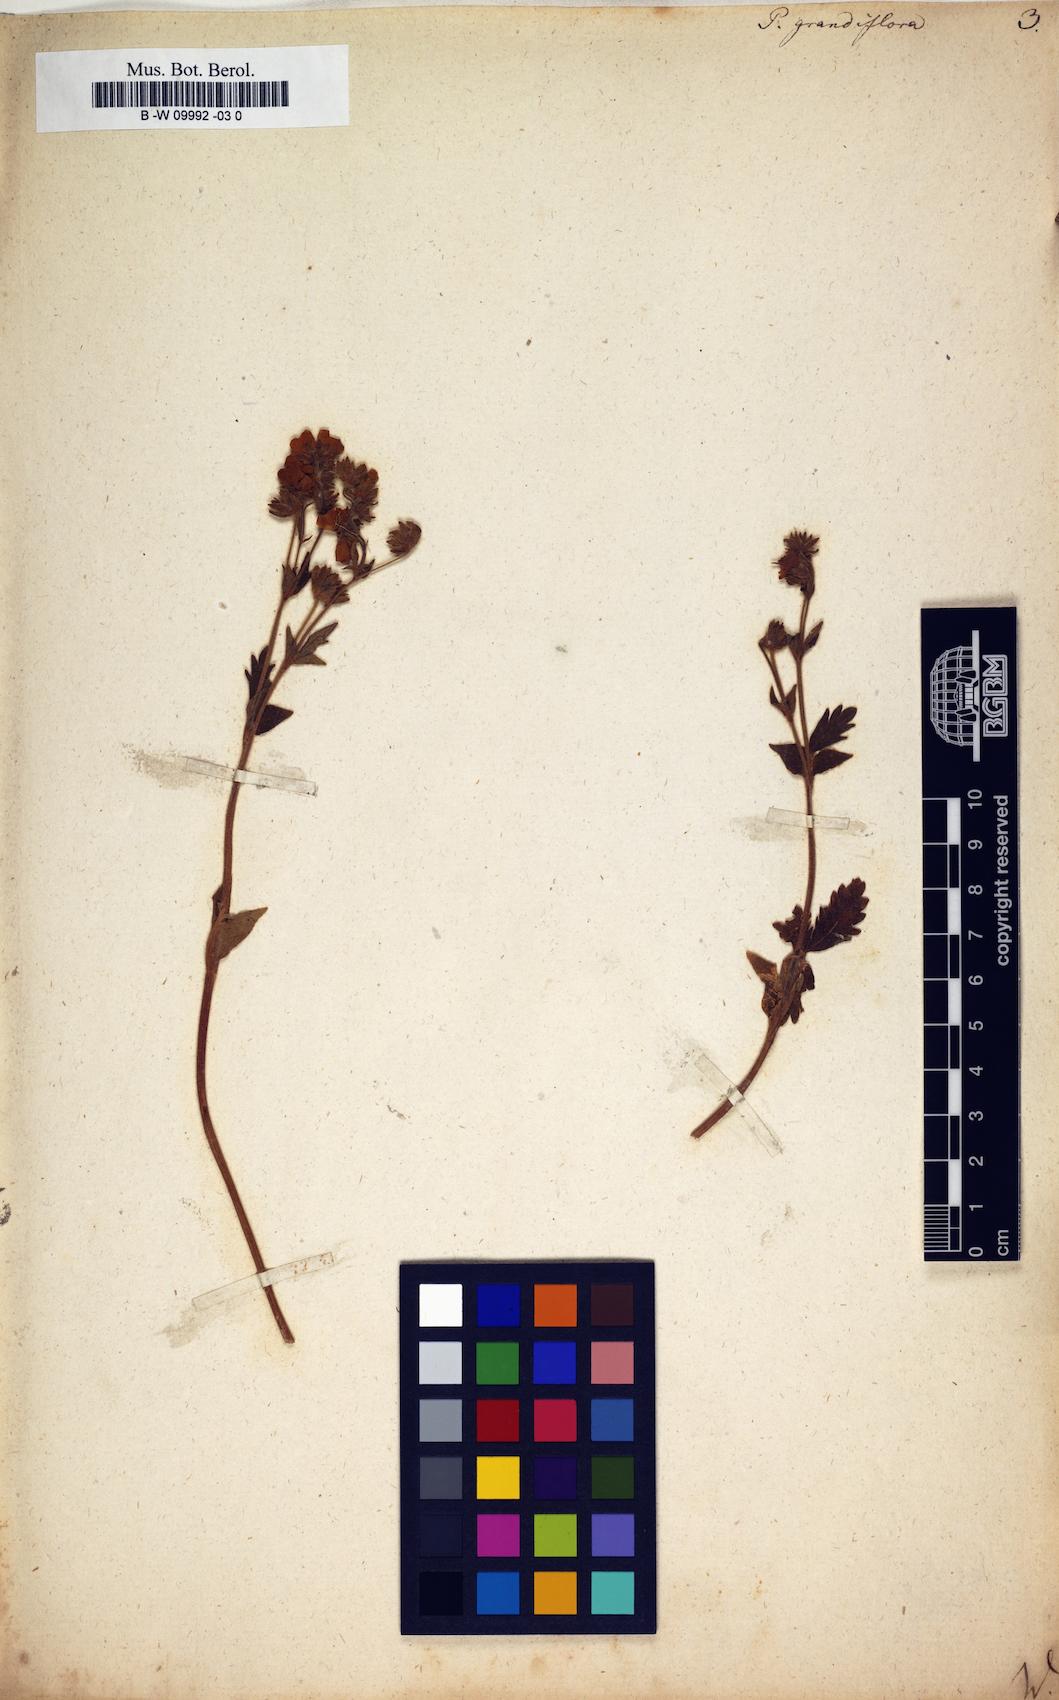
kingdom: Plantae
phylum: Tracheophyta
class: Magnoliopsida
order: Rosales
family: Rosaceae
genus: Potentilla
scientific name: Potentilla grandiflora
